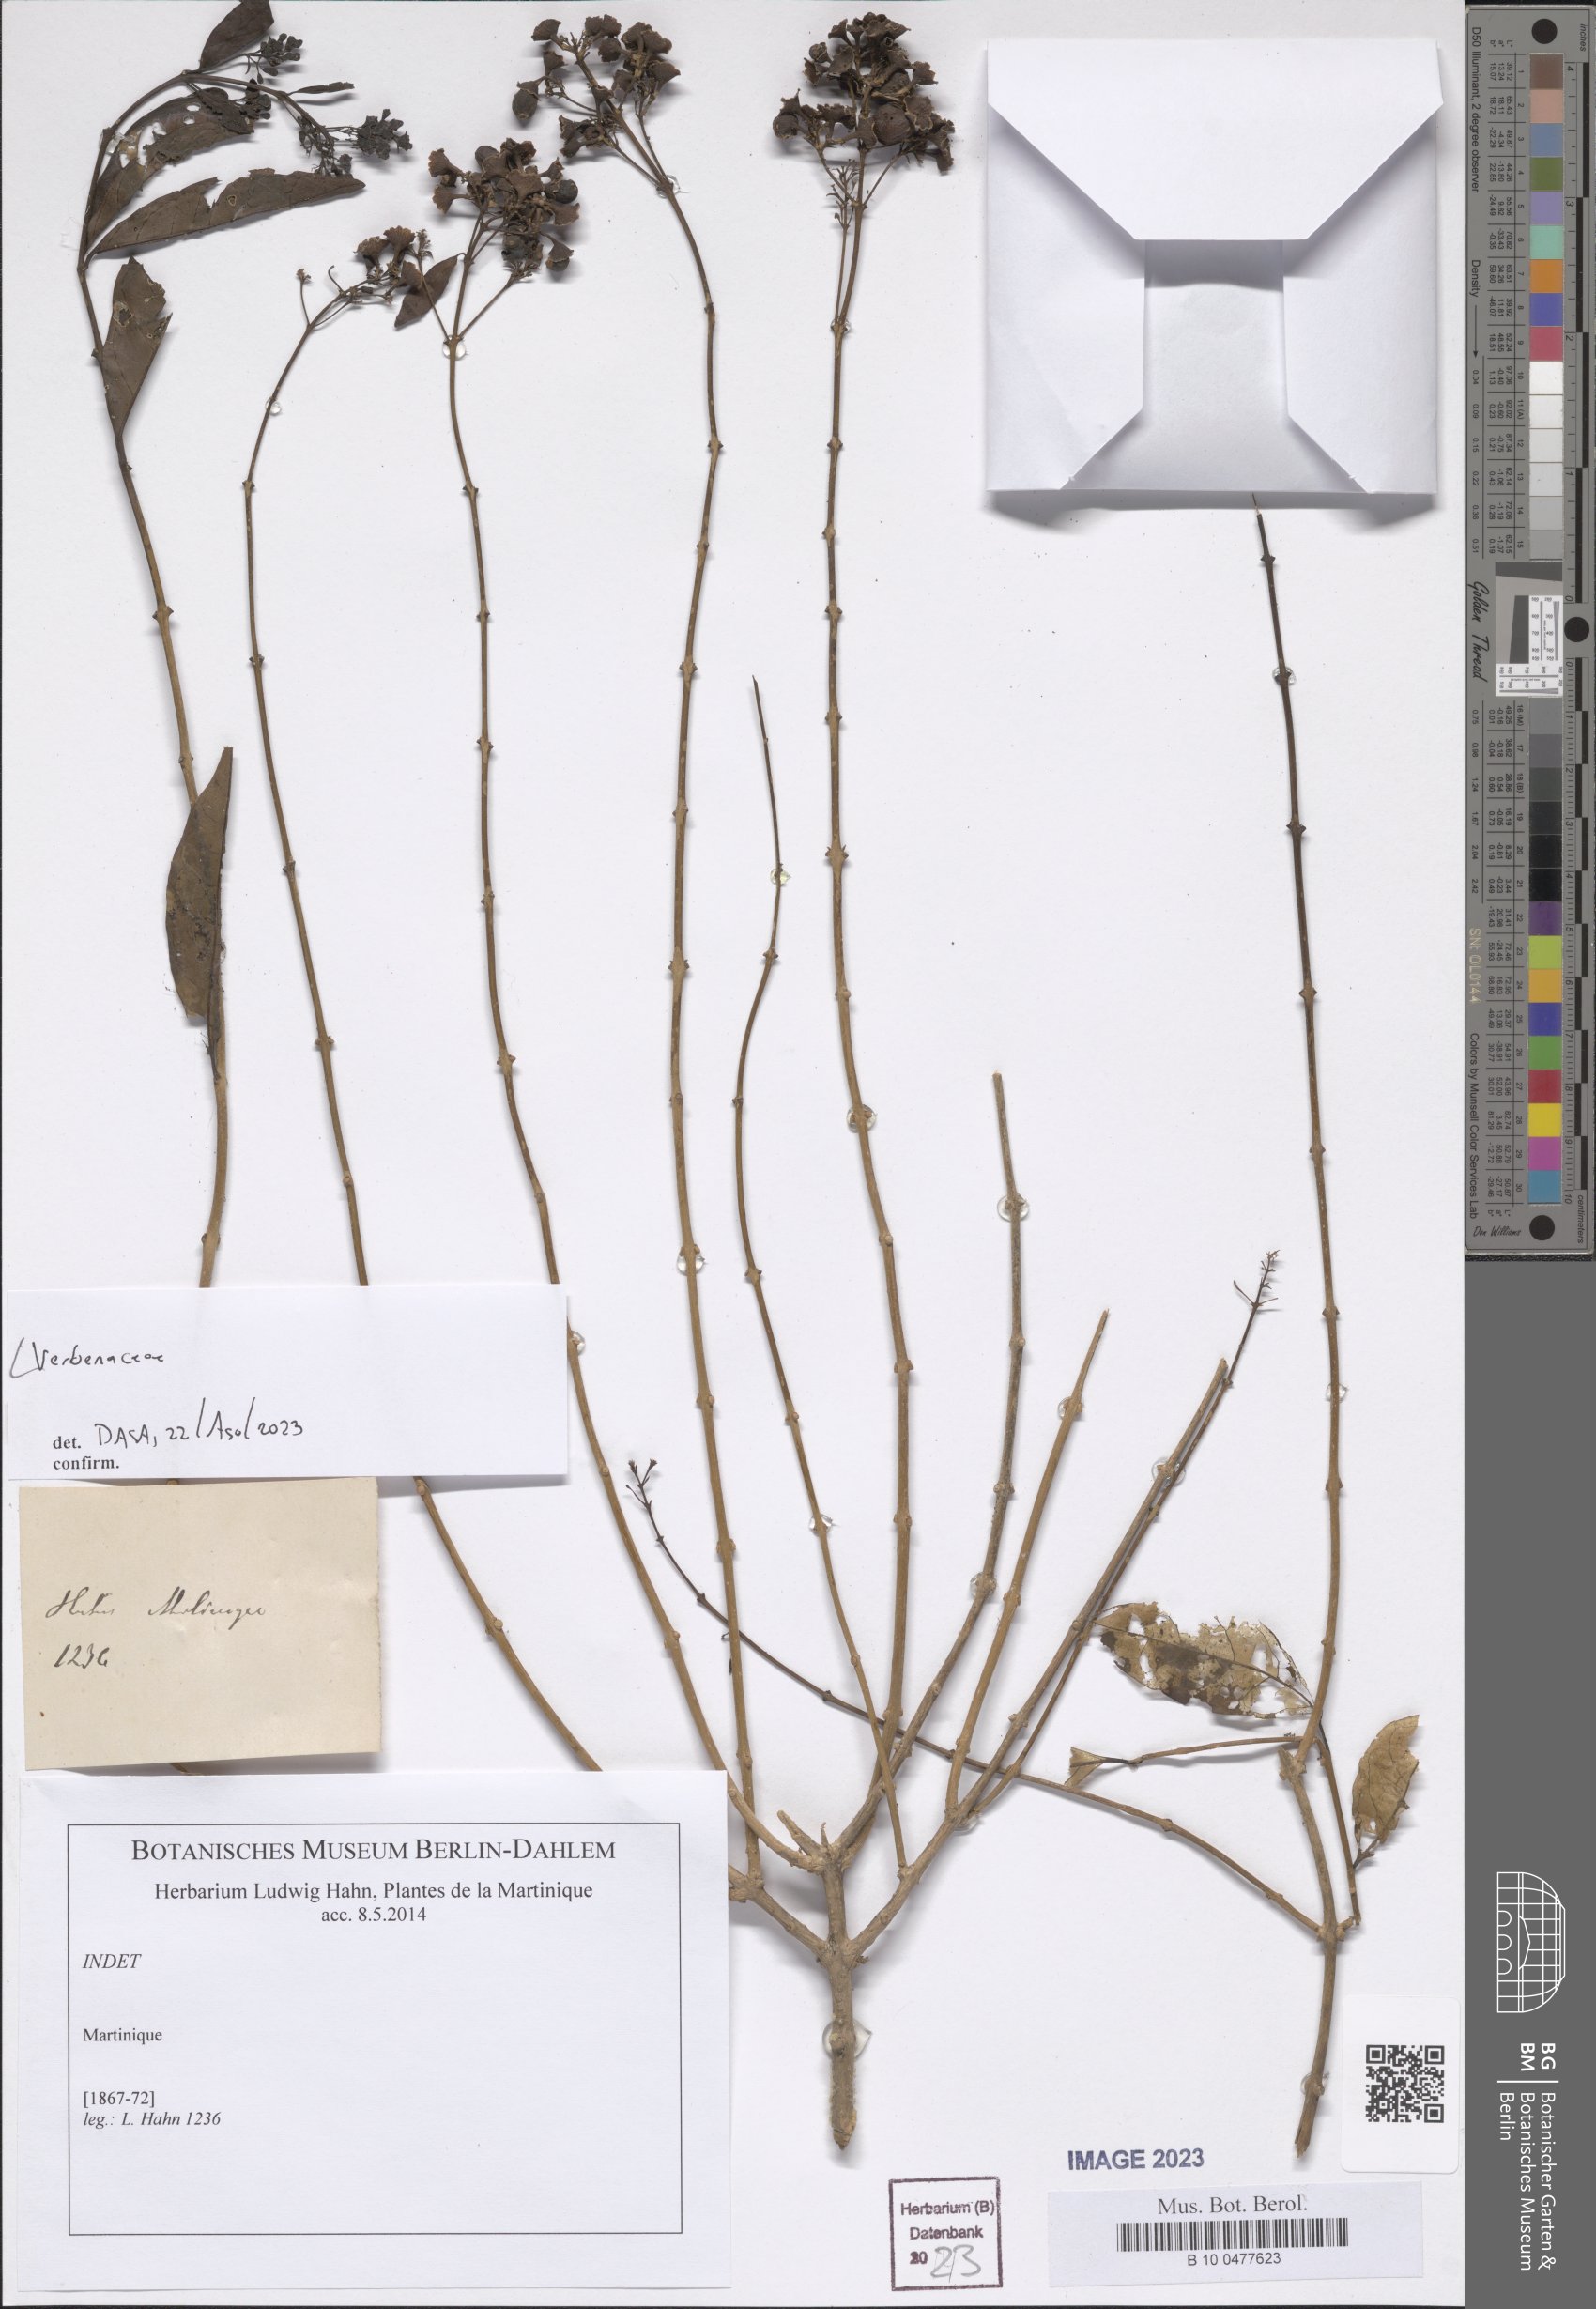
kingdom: Plantae
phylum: Tracheophyta
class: Magnoliopsida
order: Lamiales
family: Verbenaceae
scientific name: Verbenaceae
